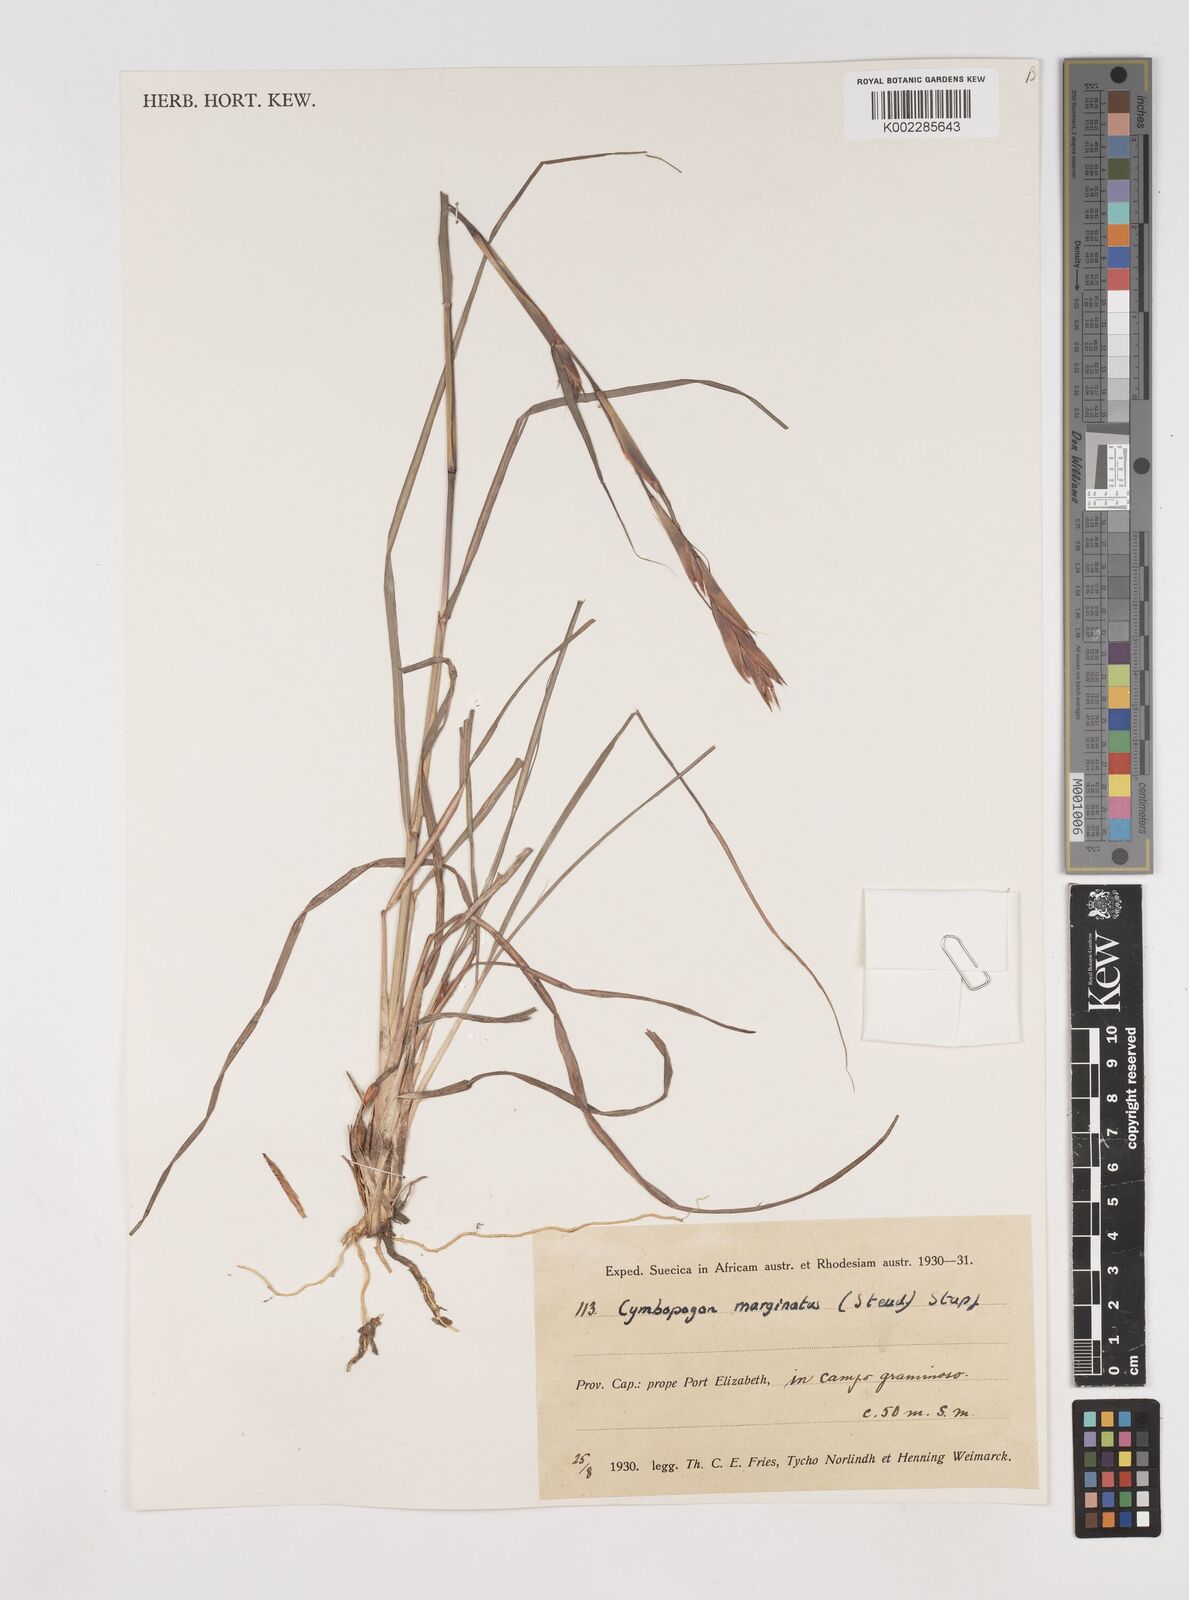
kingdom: Plantae
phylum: Tracheophyta
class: Liliopsida
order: Poales
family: Poaceae
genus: Cymbopogon
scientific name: Cymbopogon marginatus
